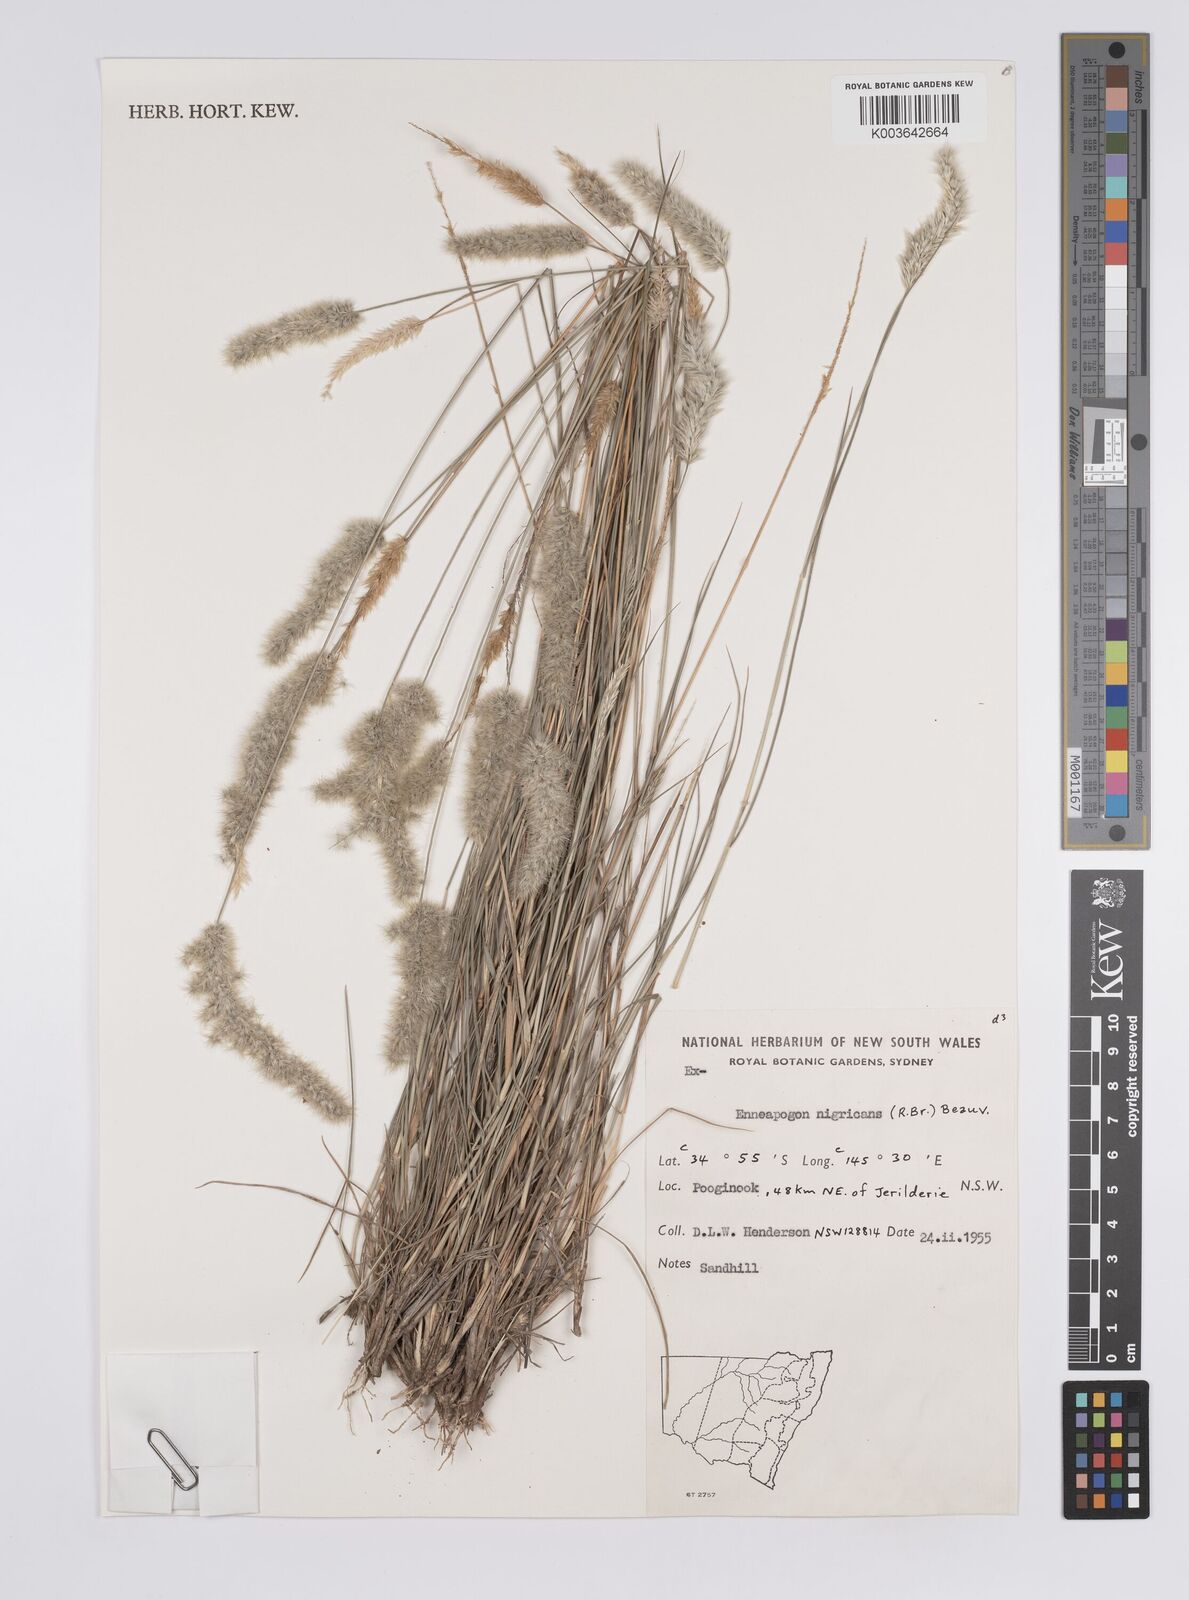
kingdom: Plantae
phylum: Tracheophyta
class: Liliopsida
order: Poales
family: Poaceae
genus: Enneapogon
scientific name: Enneapogon nigricans
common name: Pappus grass
